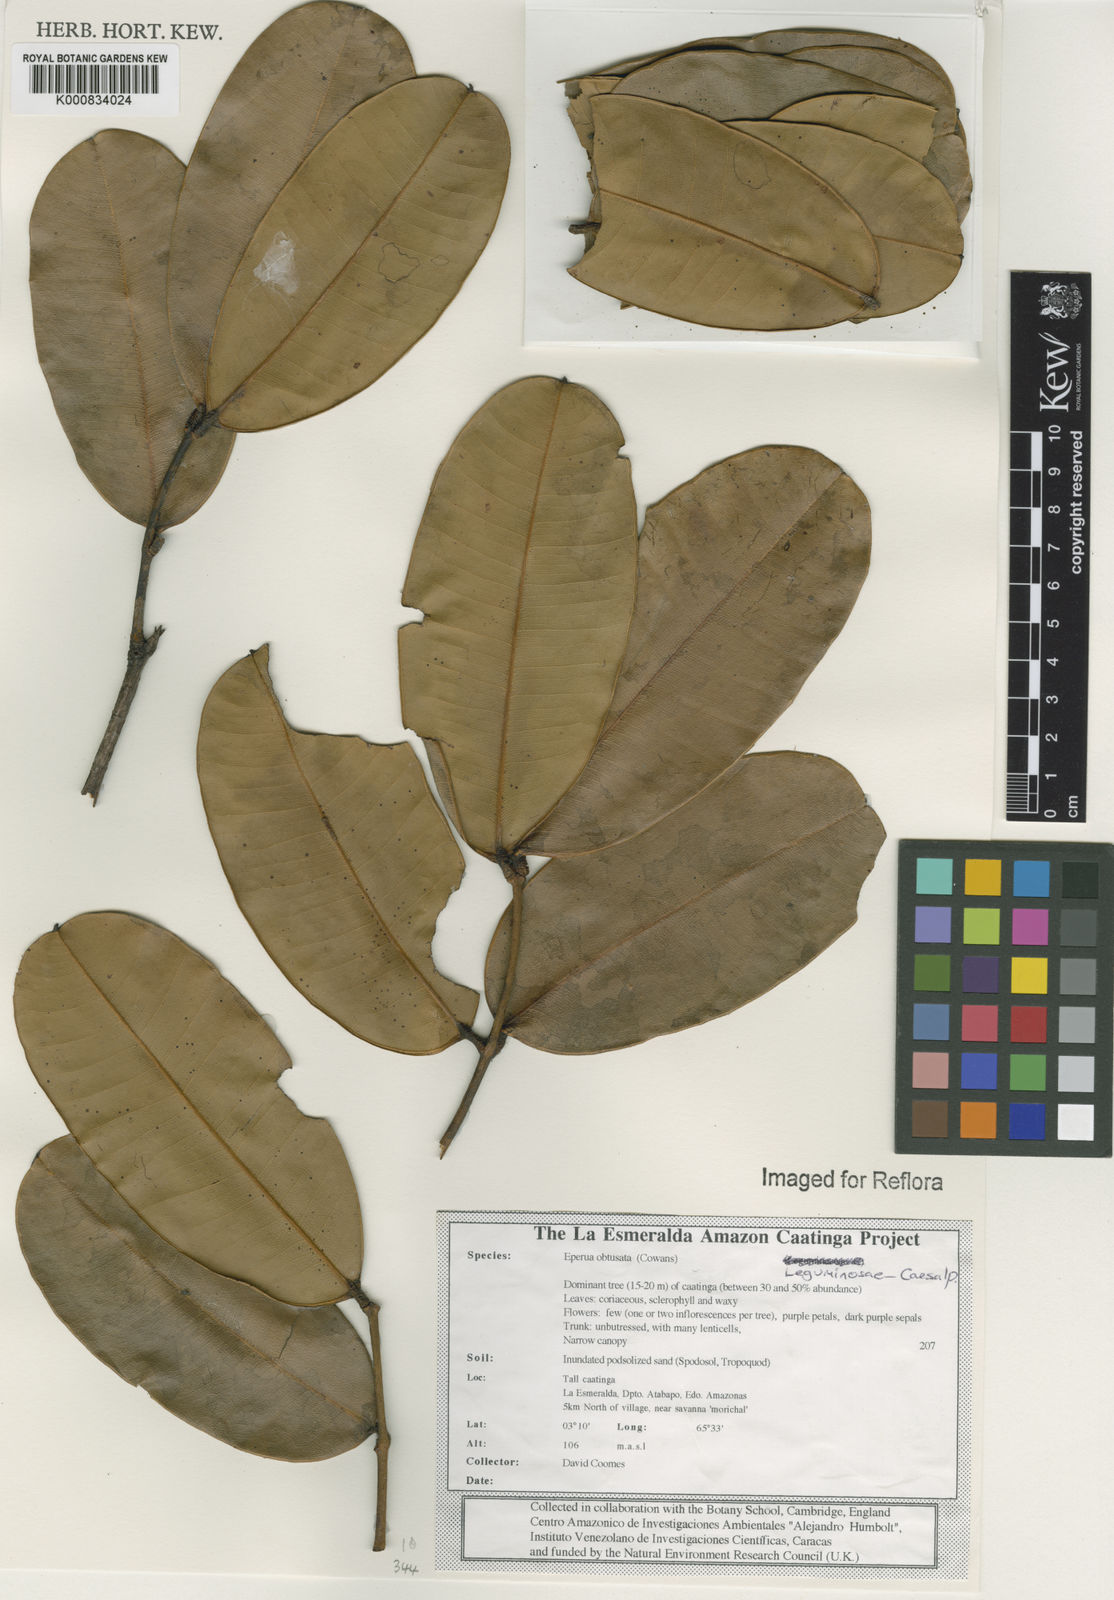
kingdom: Plantae
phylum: Tracheophyta
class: Magnoliopsida
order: Fabales
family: Fabaceae
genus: Eperua
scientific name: Eperua obtusata
